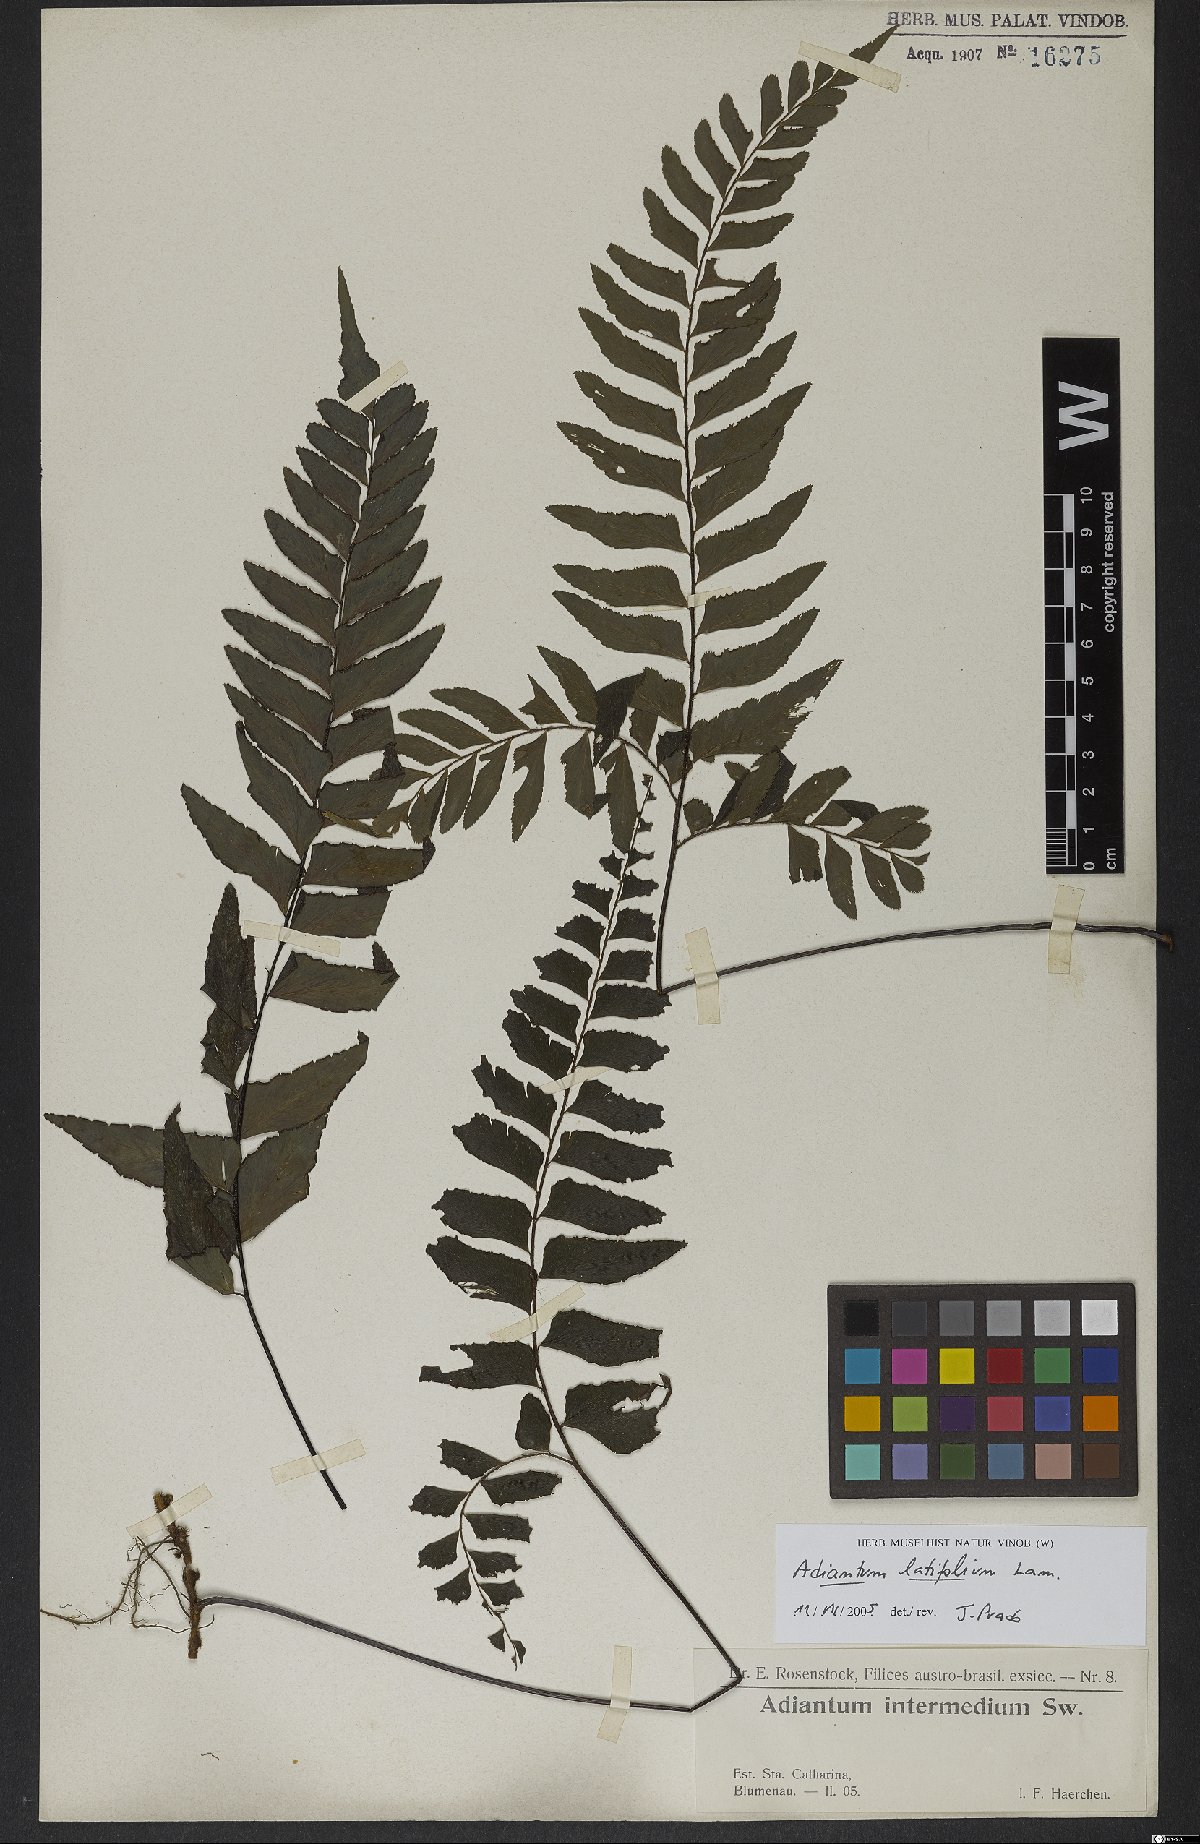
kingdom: Plantae
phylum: Tracheophyta
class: Polypodiopsida
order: Polypodiales
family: Pteridaceae
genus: Adiantum
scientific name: Adiantum latifolium
